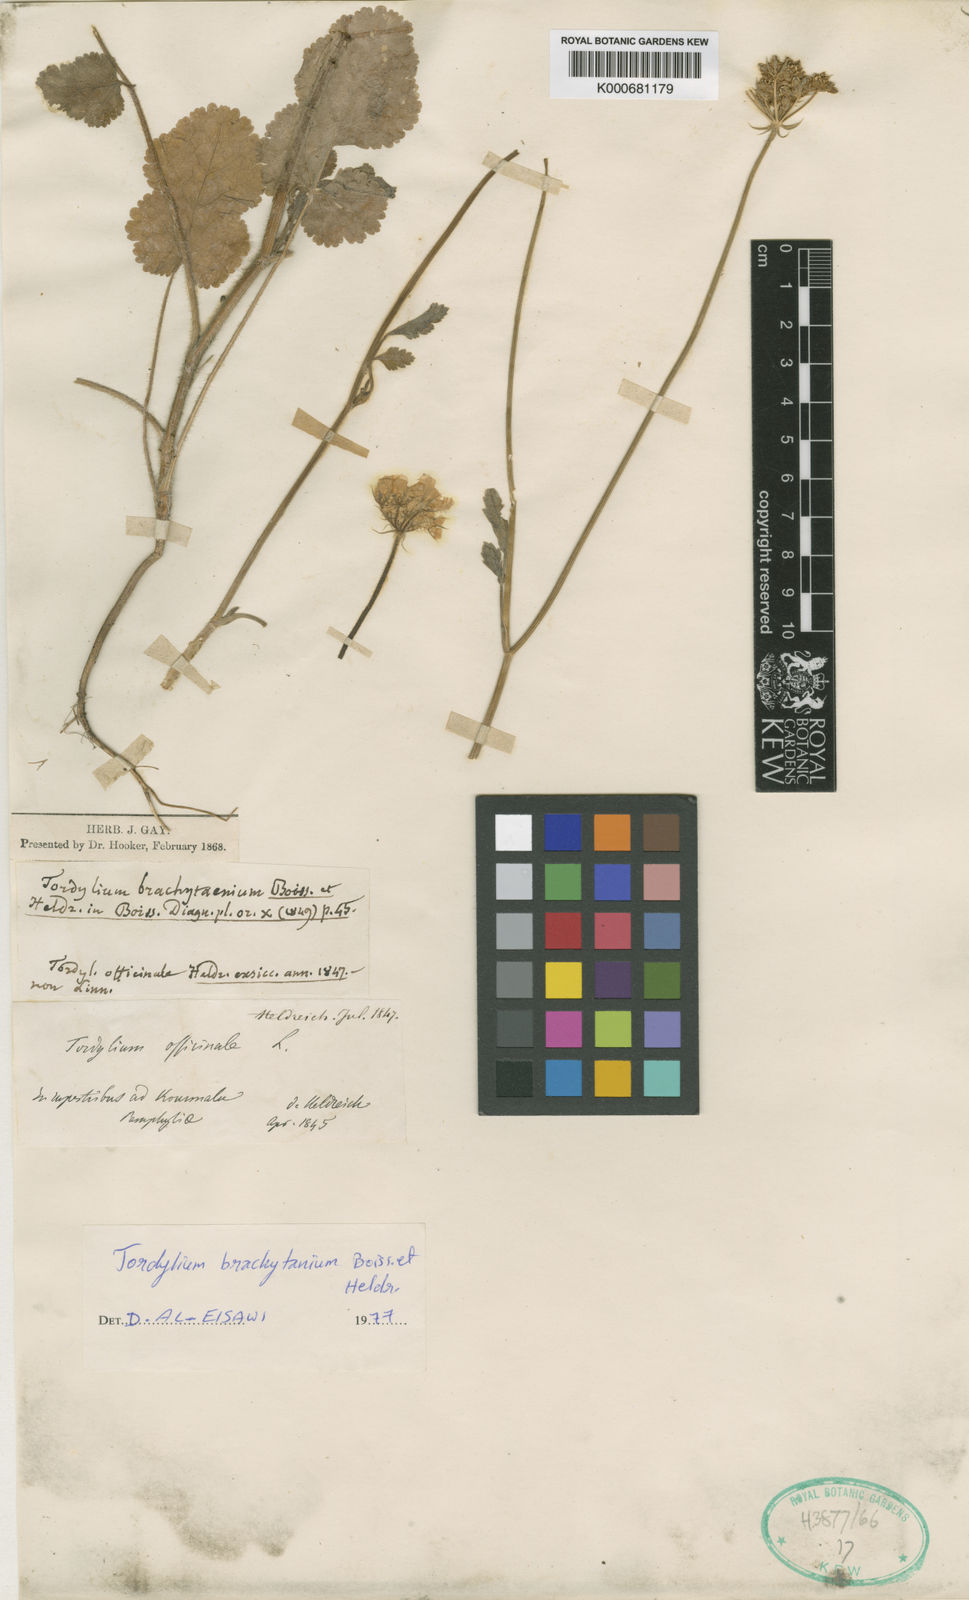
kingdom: Plantae
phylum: Tracheophyta
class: Magnoliopsida
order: Apiales
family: Apiaceae
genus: Tordylium
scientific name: Tordylium brachytaenium
